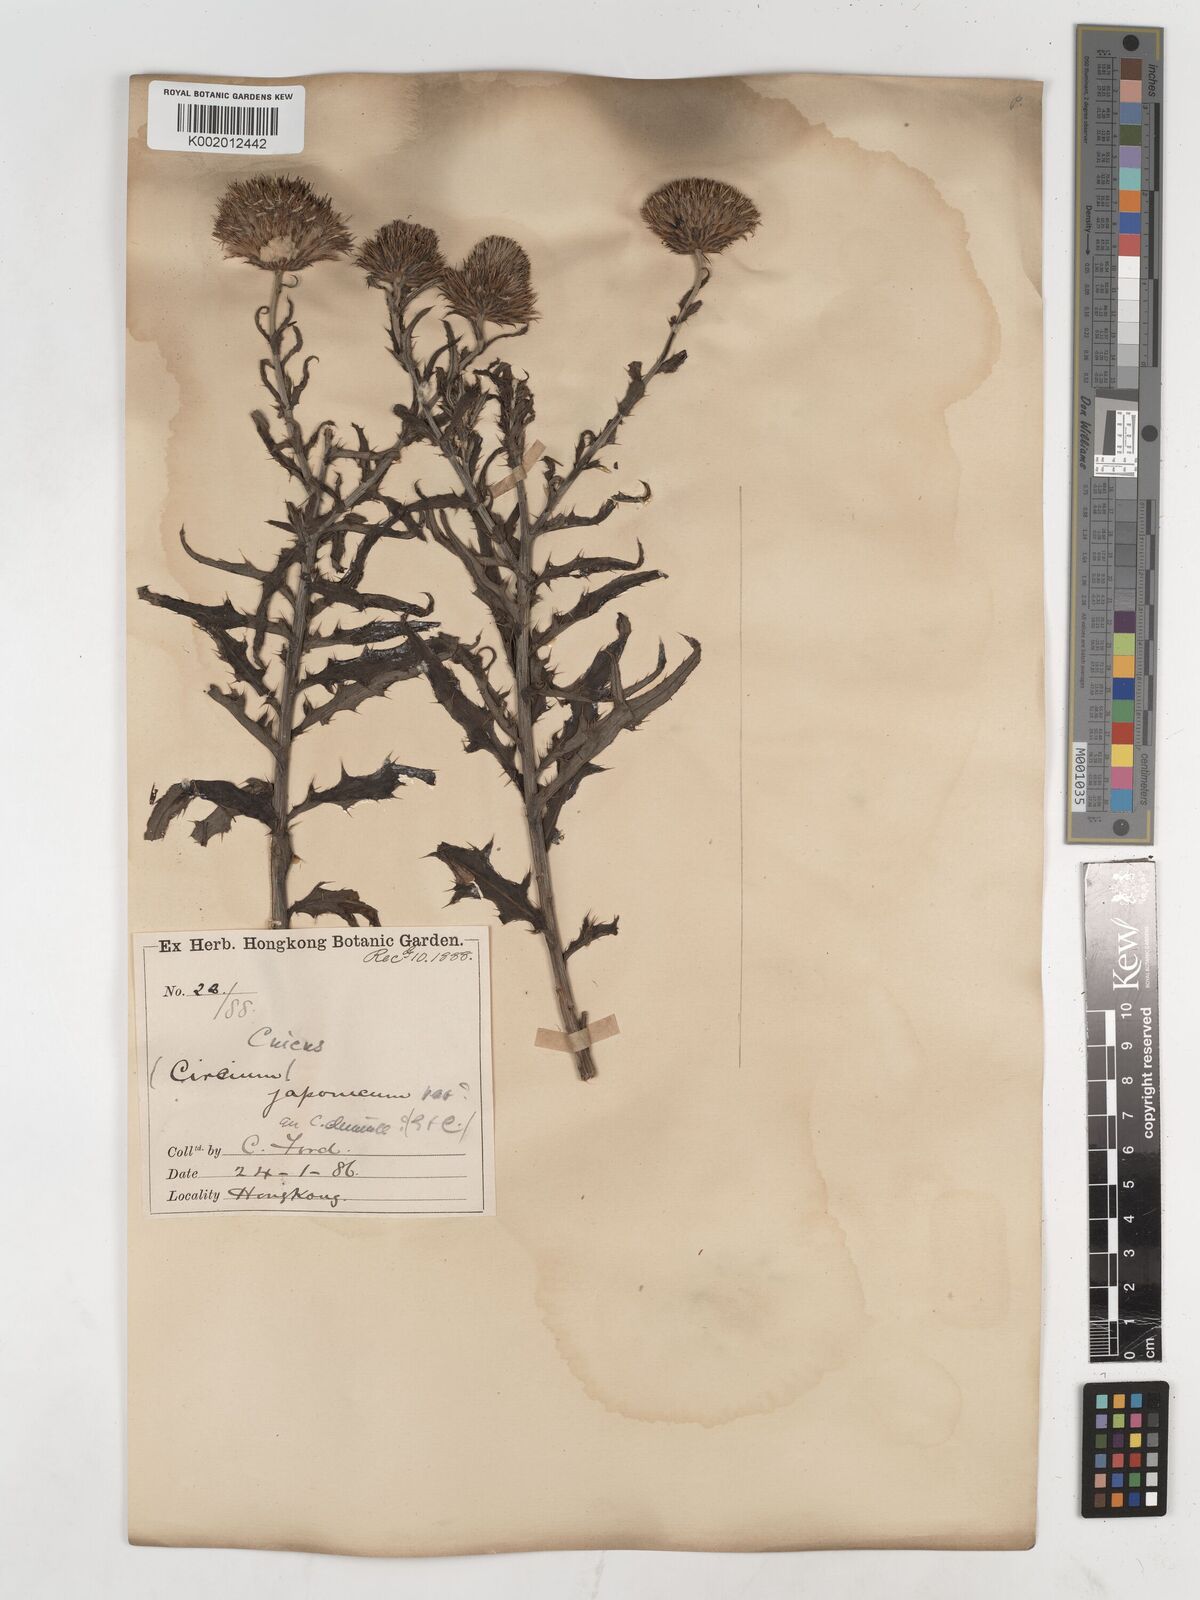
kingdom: Plantae
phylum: Tracheophyta
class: Magnoliopsida
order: Asterales
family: Asteraceae
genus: Cirsium
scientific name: Cirsium chinense
